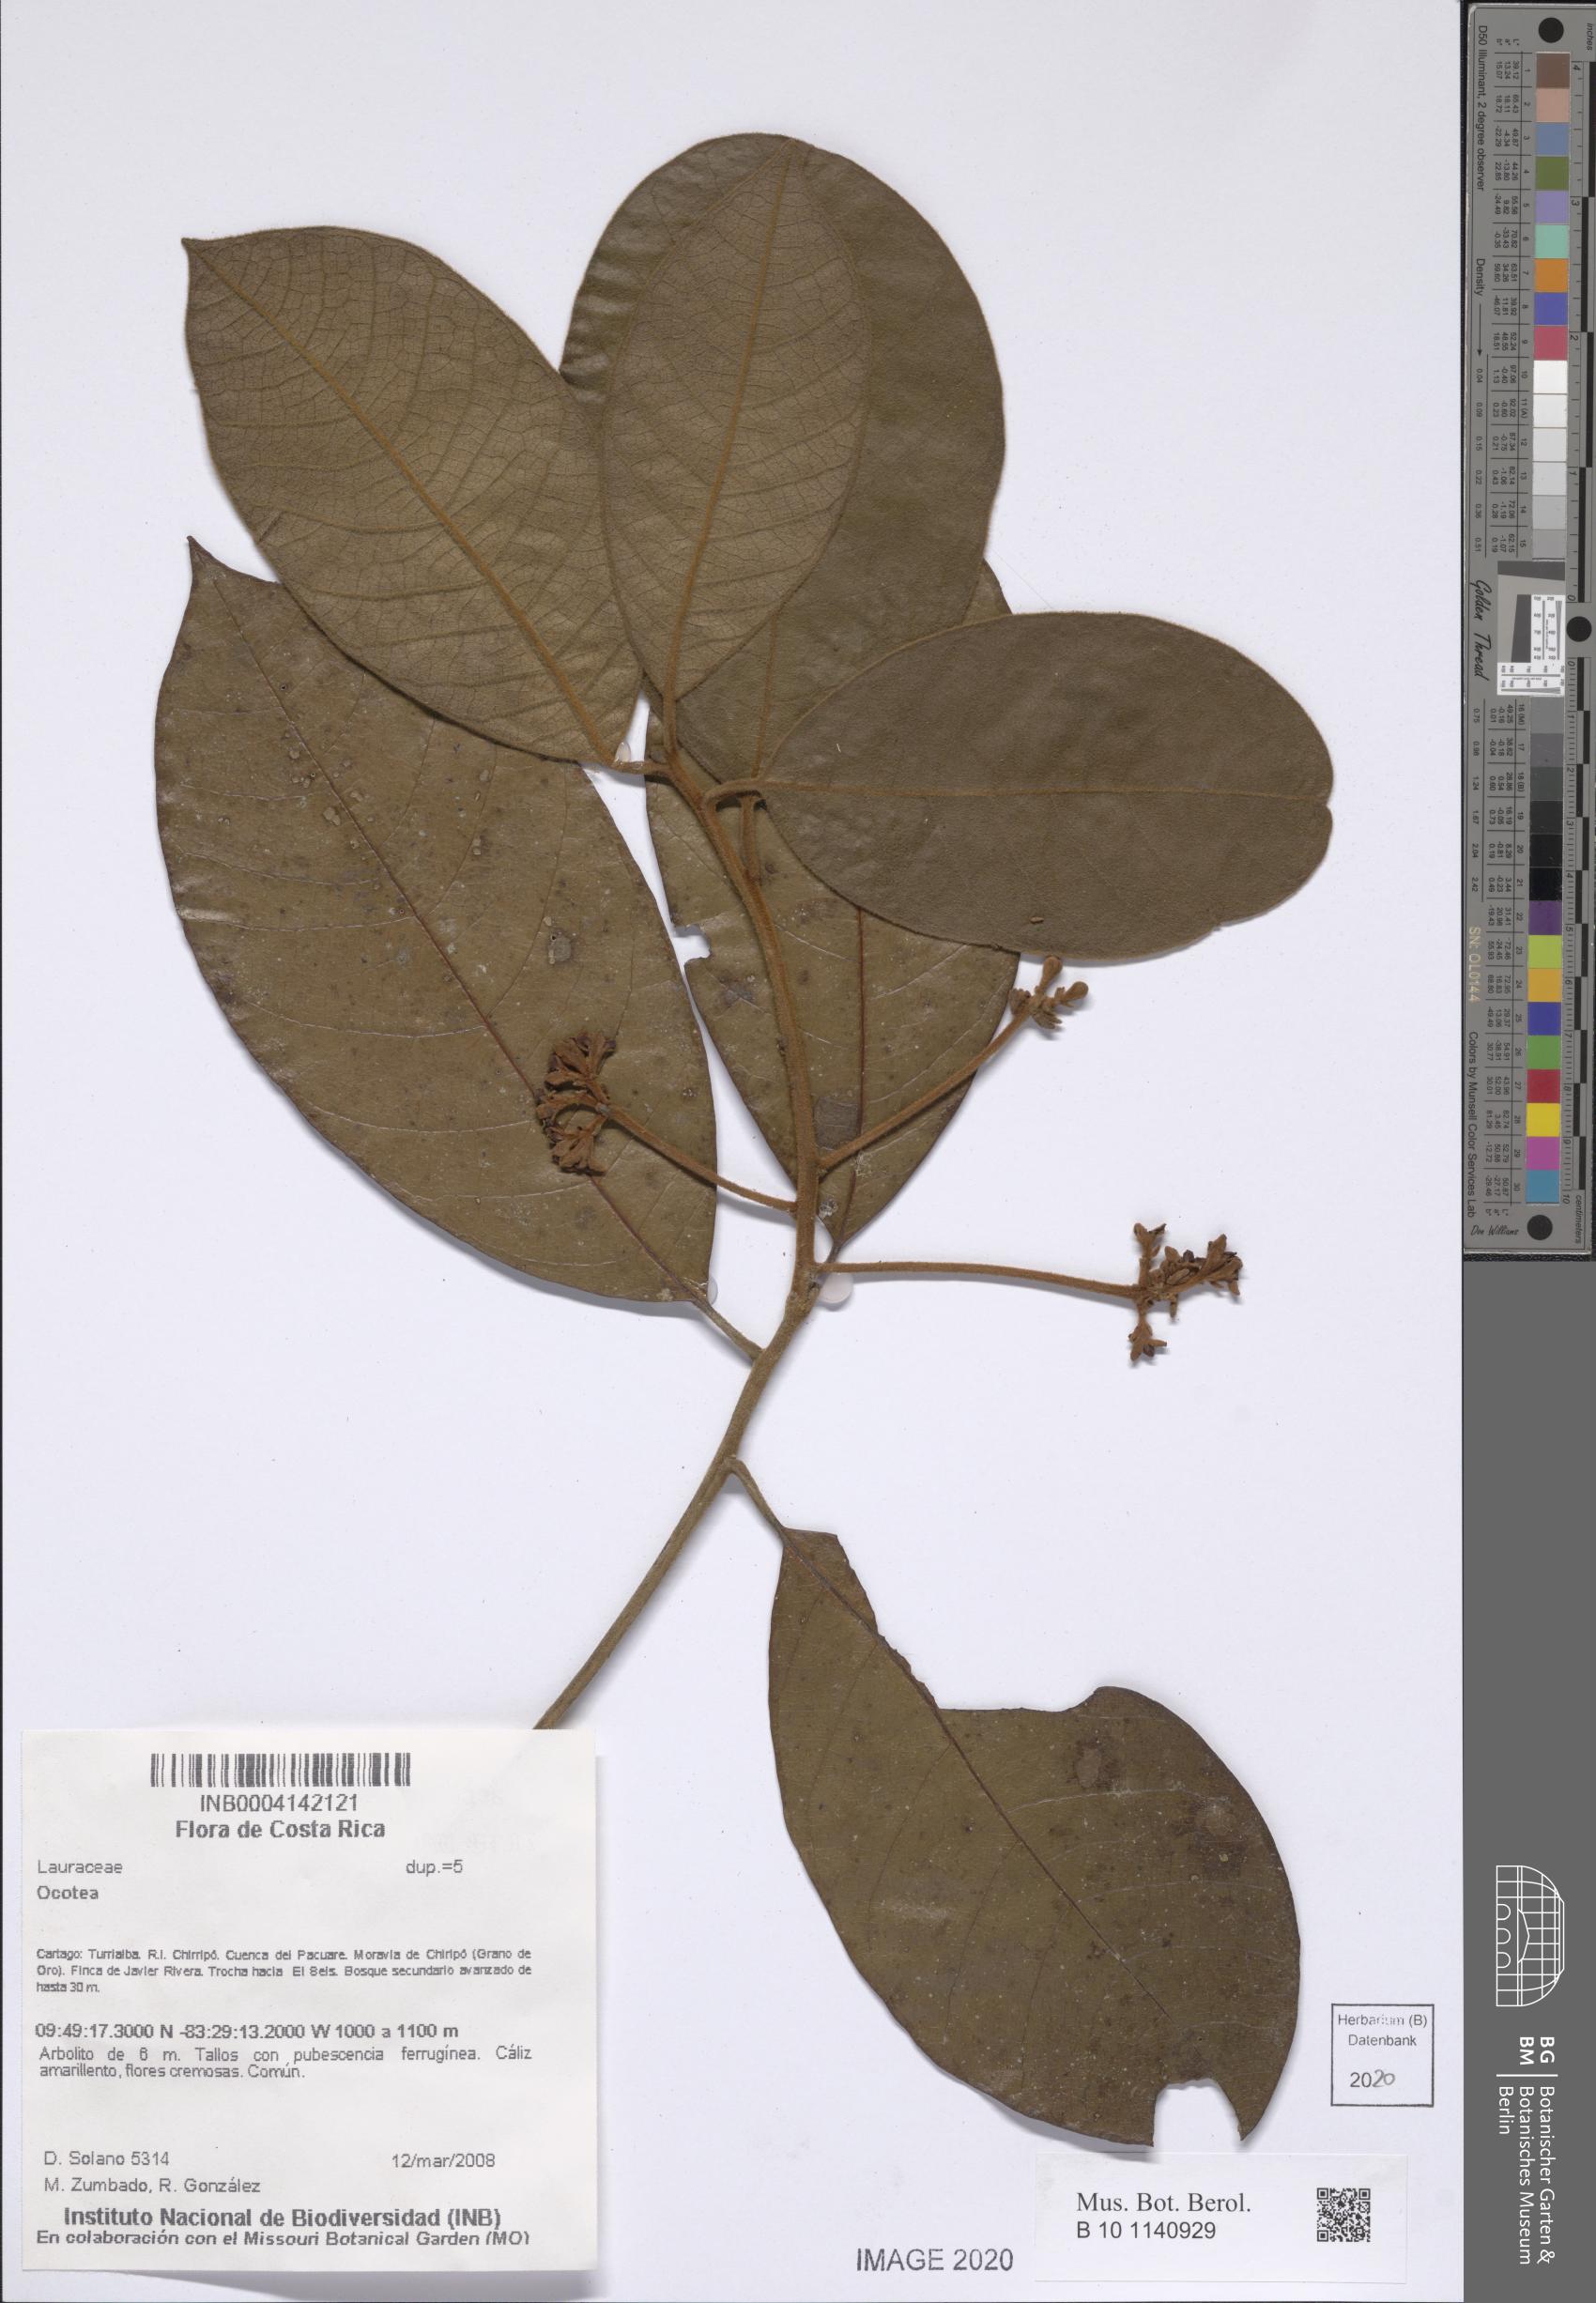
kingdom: Plantae
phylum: Tracheophyta
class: Magnoliopsida
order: Laurales
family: Lauraceae
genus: Ocotea
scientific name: Ocotea
